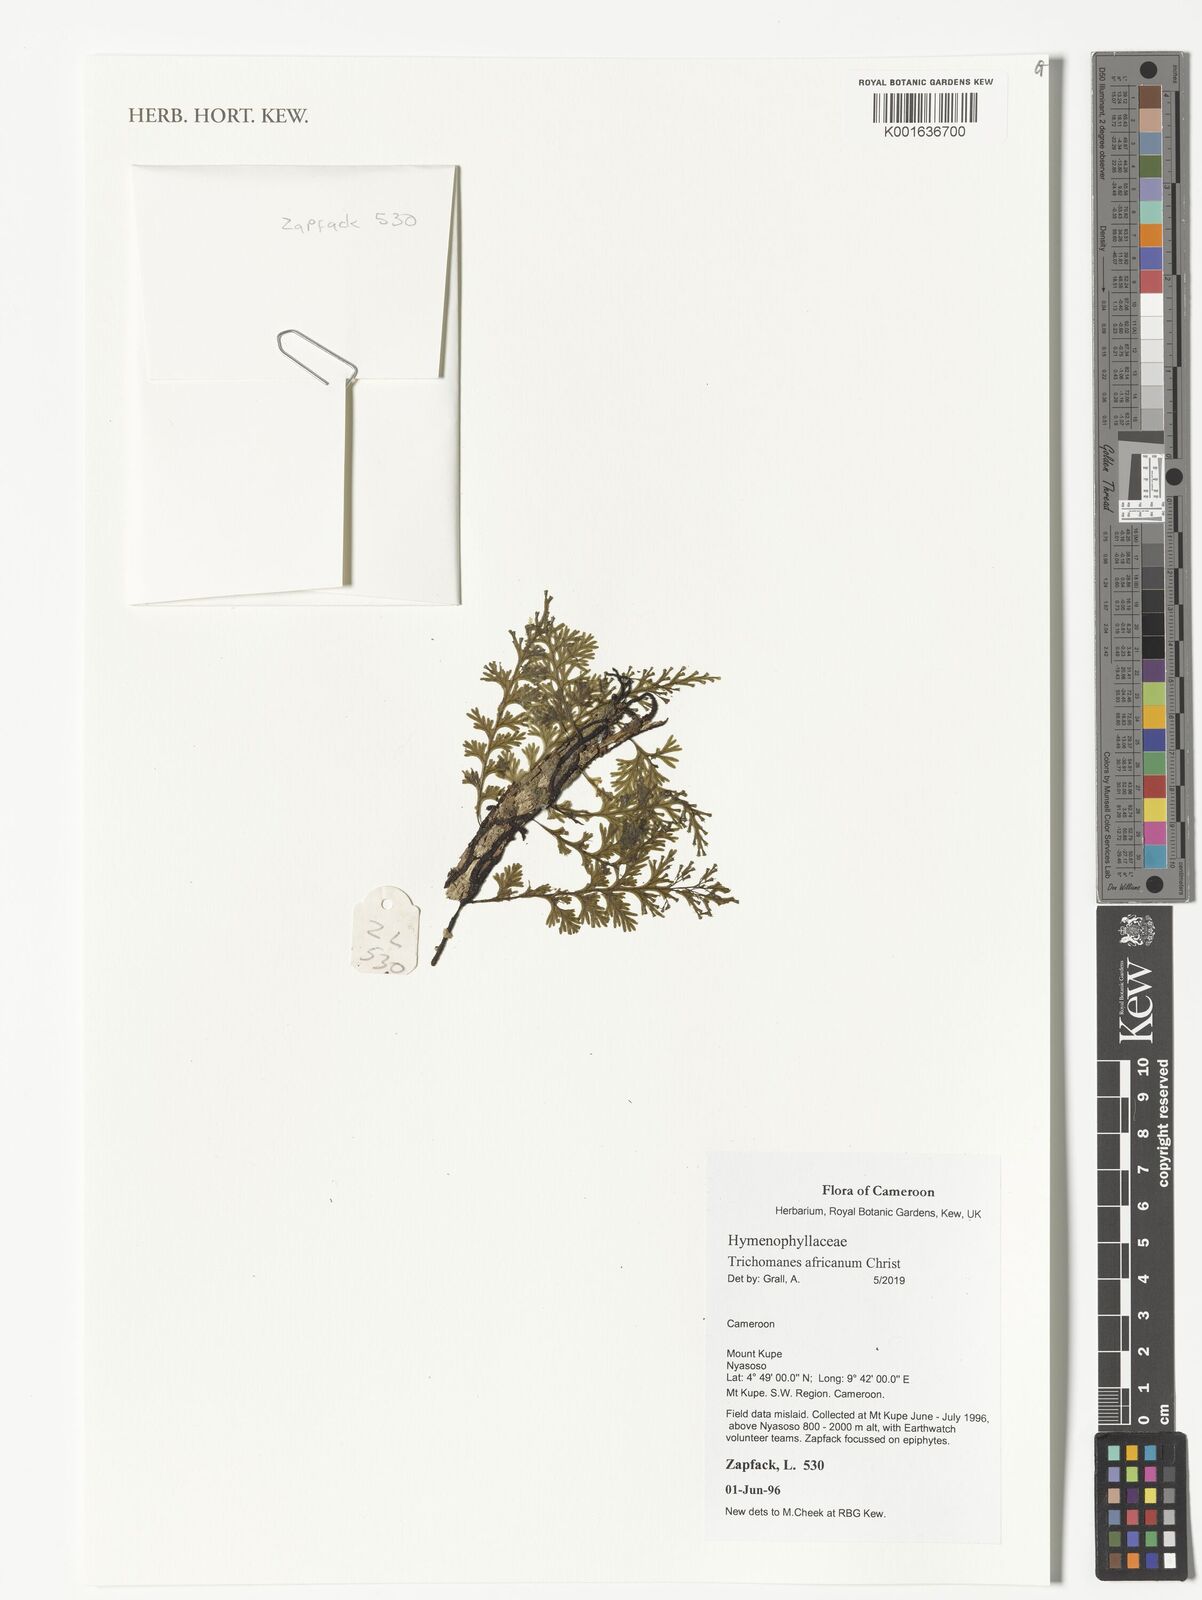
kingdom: Plantae
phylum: Tracheophyta
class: Polypodiopsida
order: Hymenophyllales
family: Hymenophyllaceae
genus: Crepidomanes
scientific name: Crepidomanes africanum
